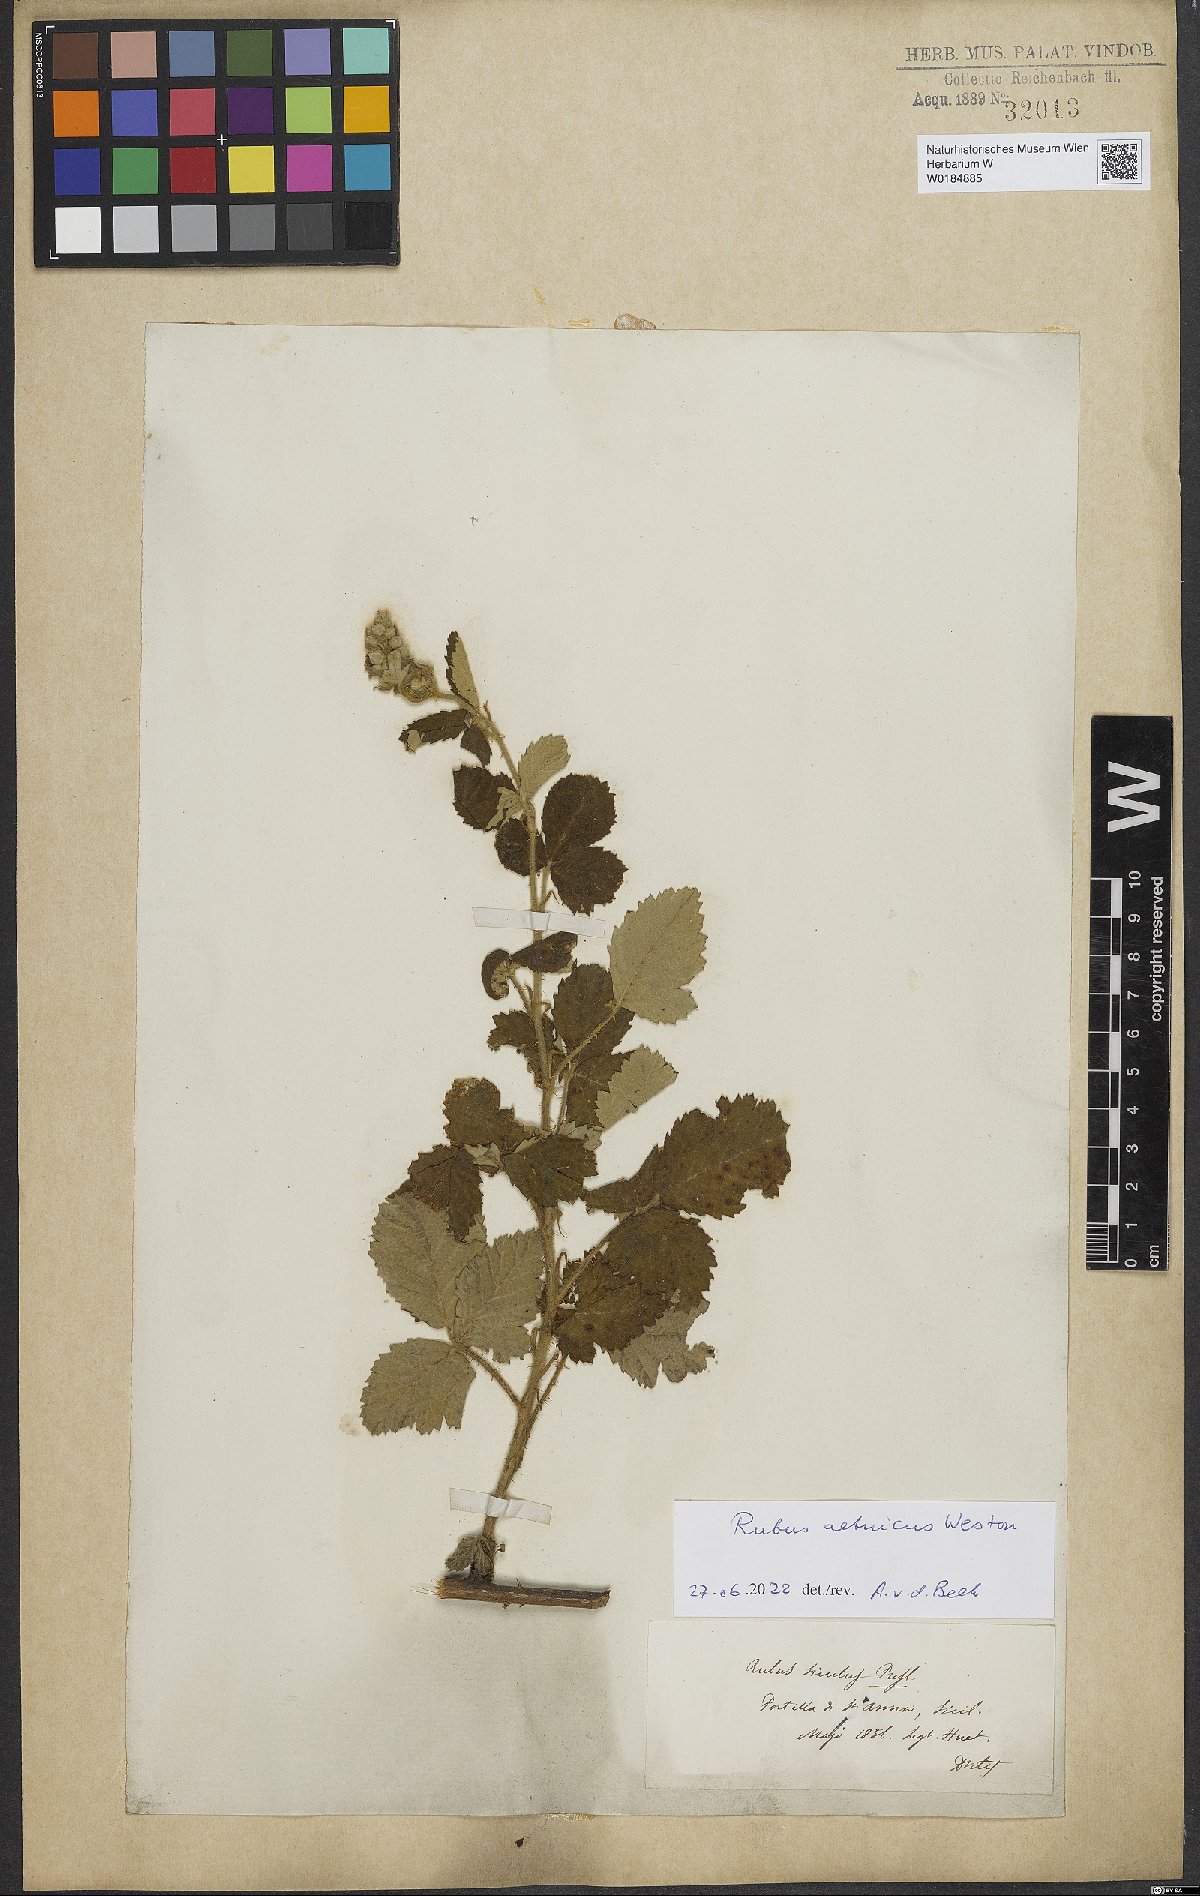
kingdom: Plantae
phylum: Tracheophyta
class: Magnoliopsida
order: Rosales
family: Rosaceae
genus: Rubus
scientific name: Rubus aetnicus
